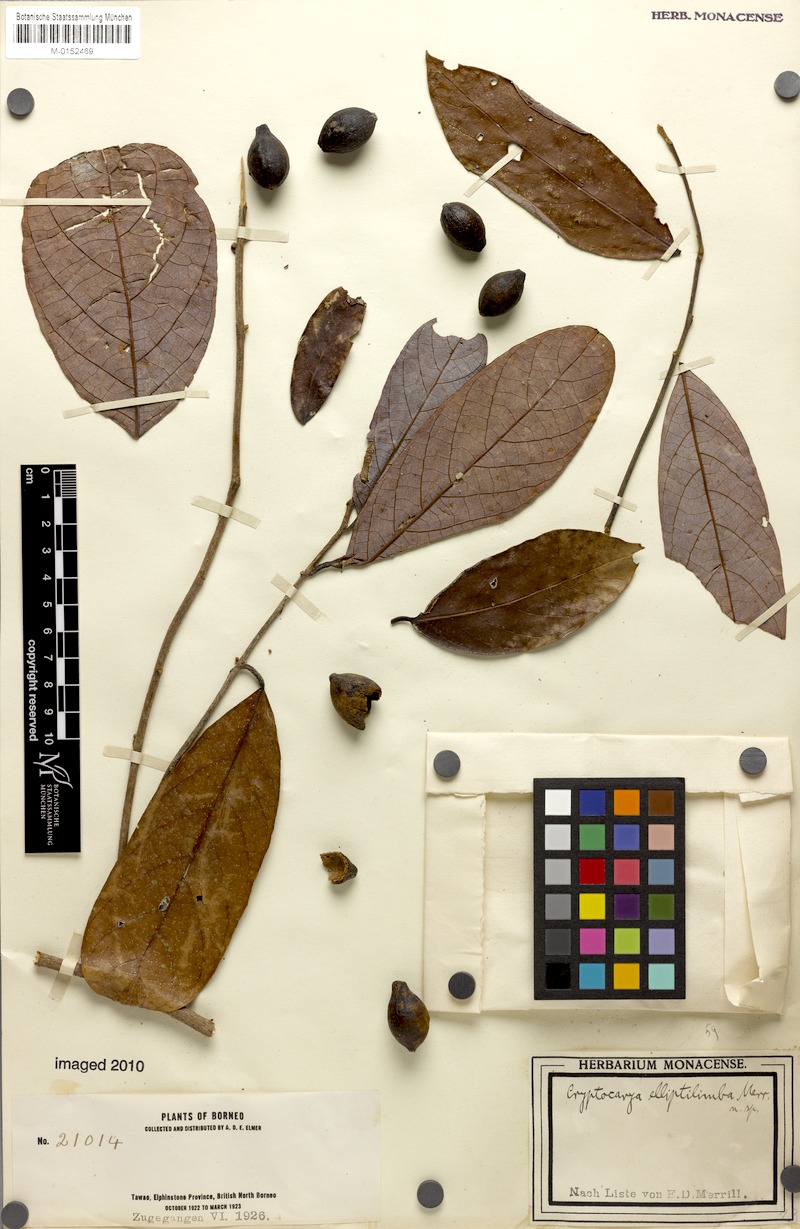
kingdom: Plantae
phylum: Tracheophyta
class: Magnoliopsida
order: Laurales
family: Lauraceae
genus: Cryptocarya
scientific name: Cryptocarya teysmanniana
